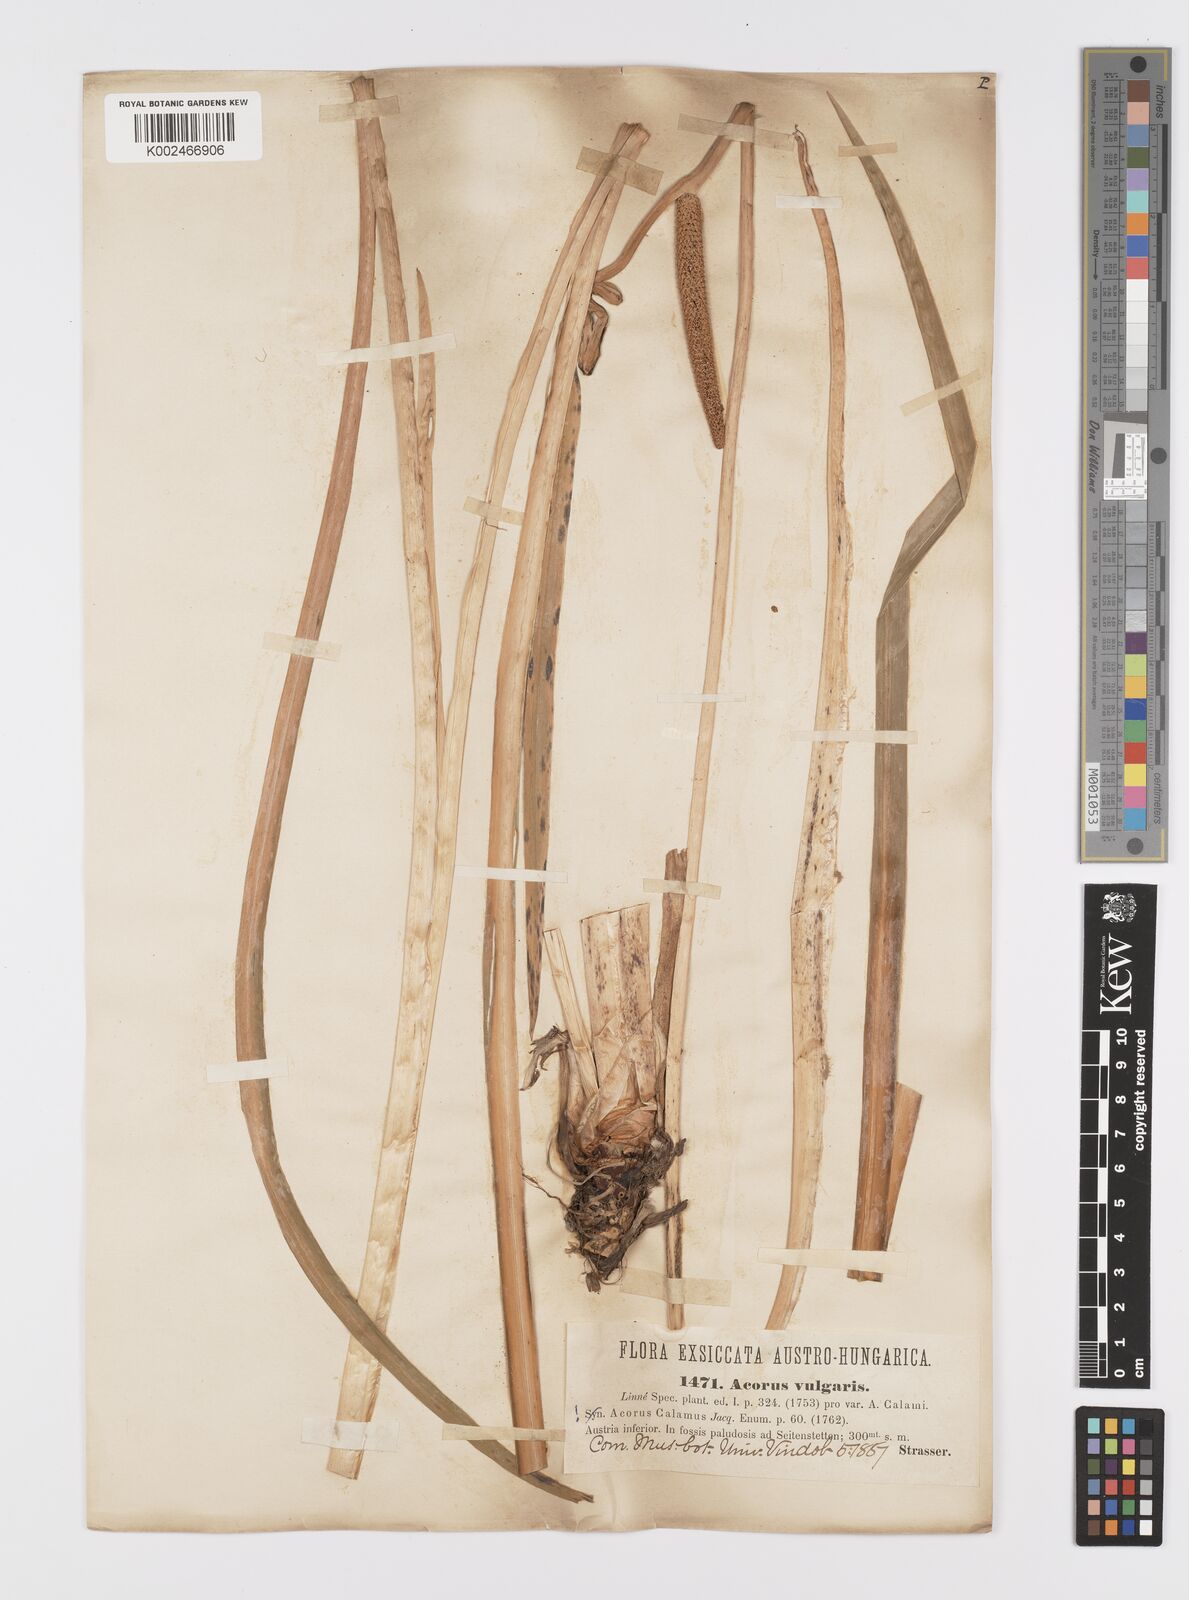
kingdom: Plantae
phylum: Tracheophyta
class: Liliopsida
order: Acorales
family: Acoraceae
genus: Acorus
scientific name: Acorus calamus
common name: Sweet-flag
